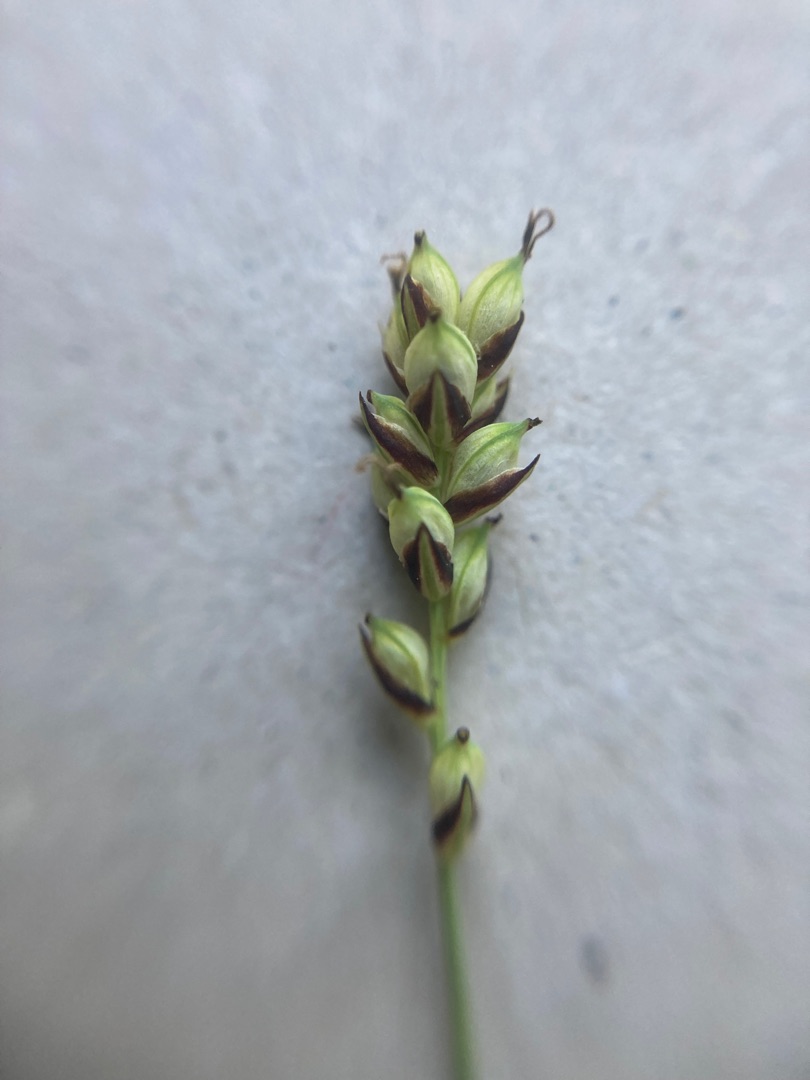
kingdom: Plantae
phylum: Tracheophyta
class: Liliopsida
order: Poales
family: Cyperaceae
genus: Carex
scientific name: Carex panicea
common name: Hirse-star
